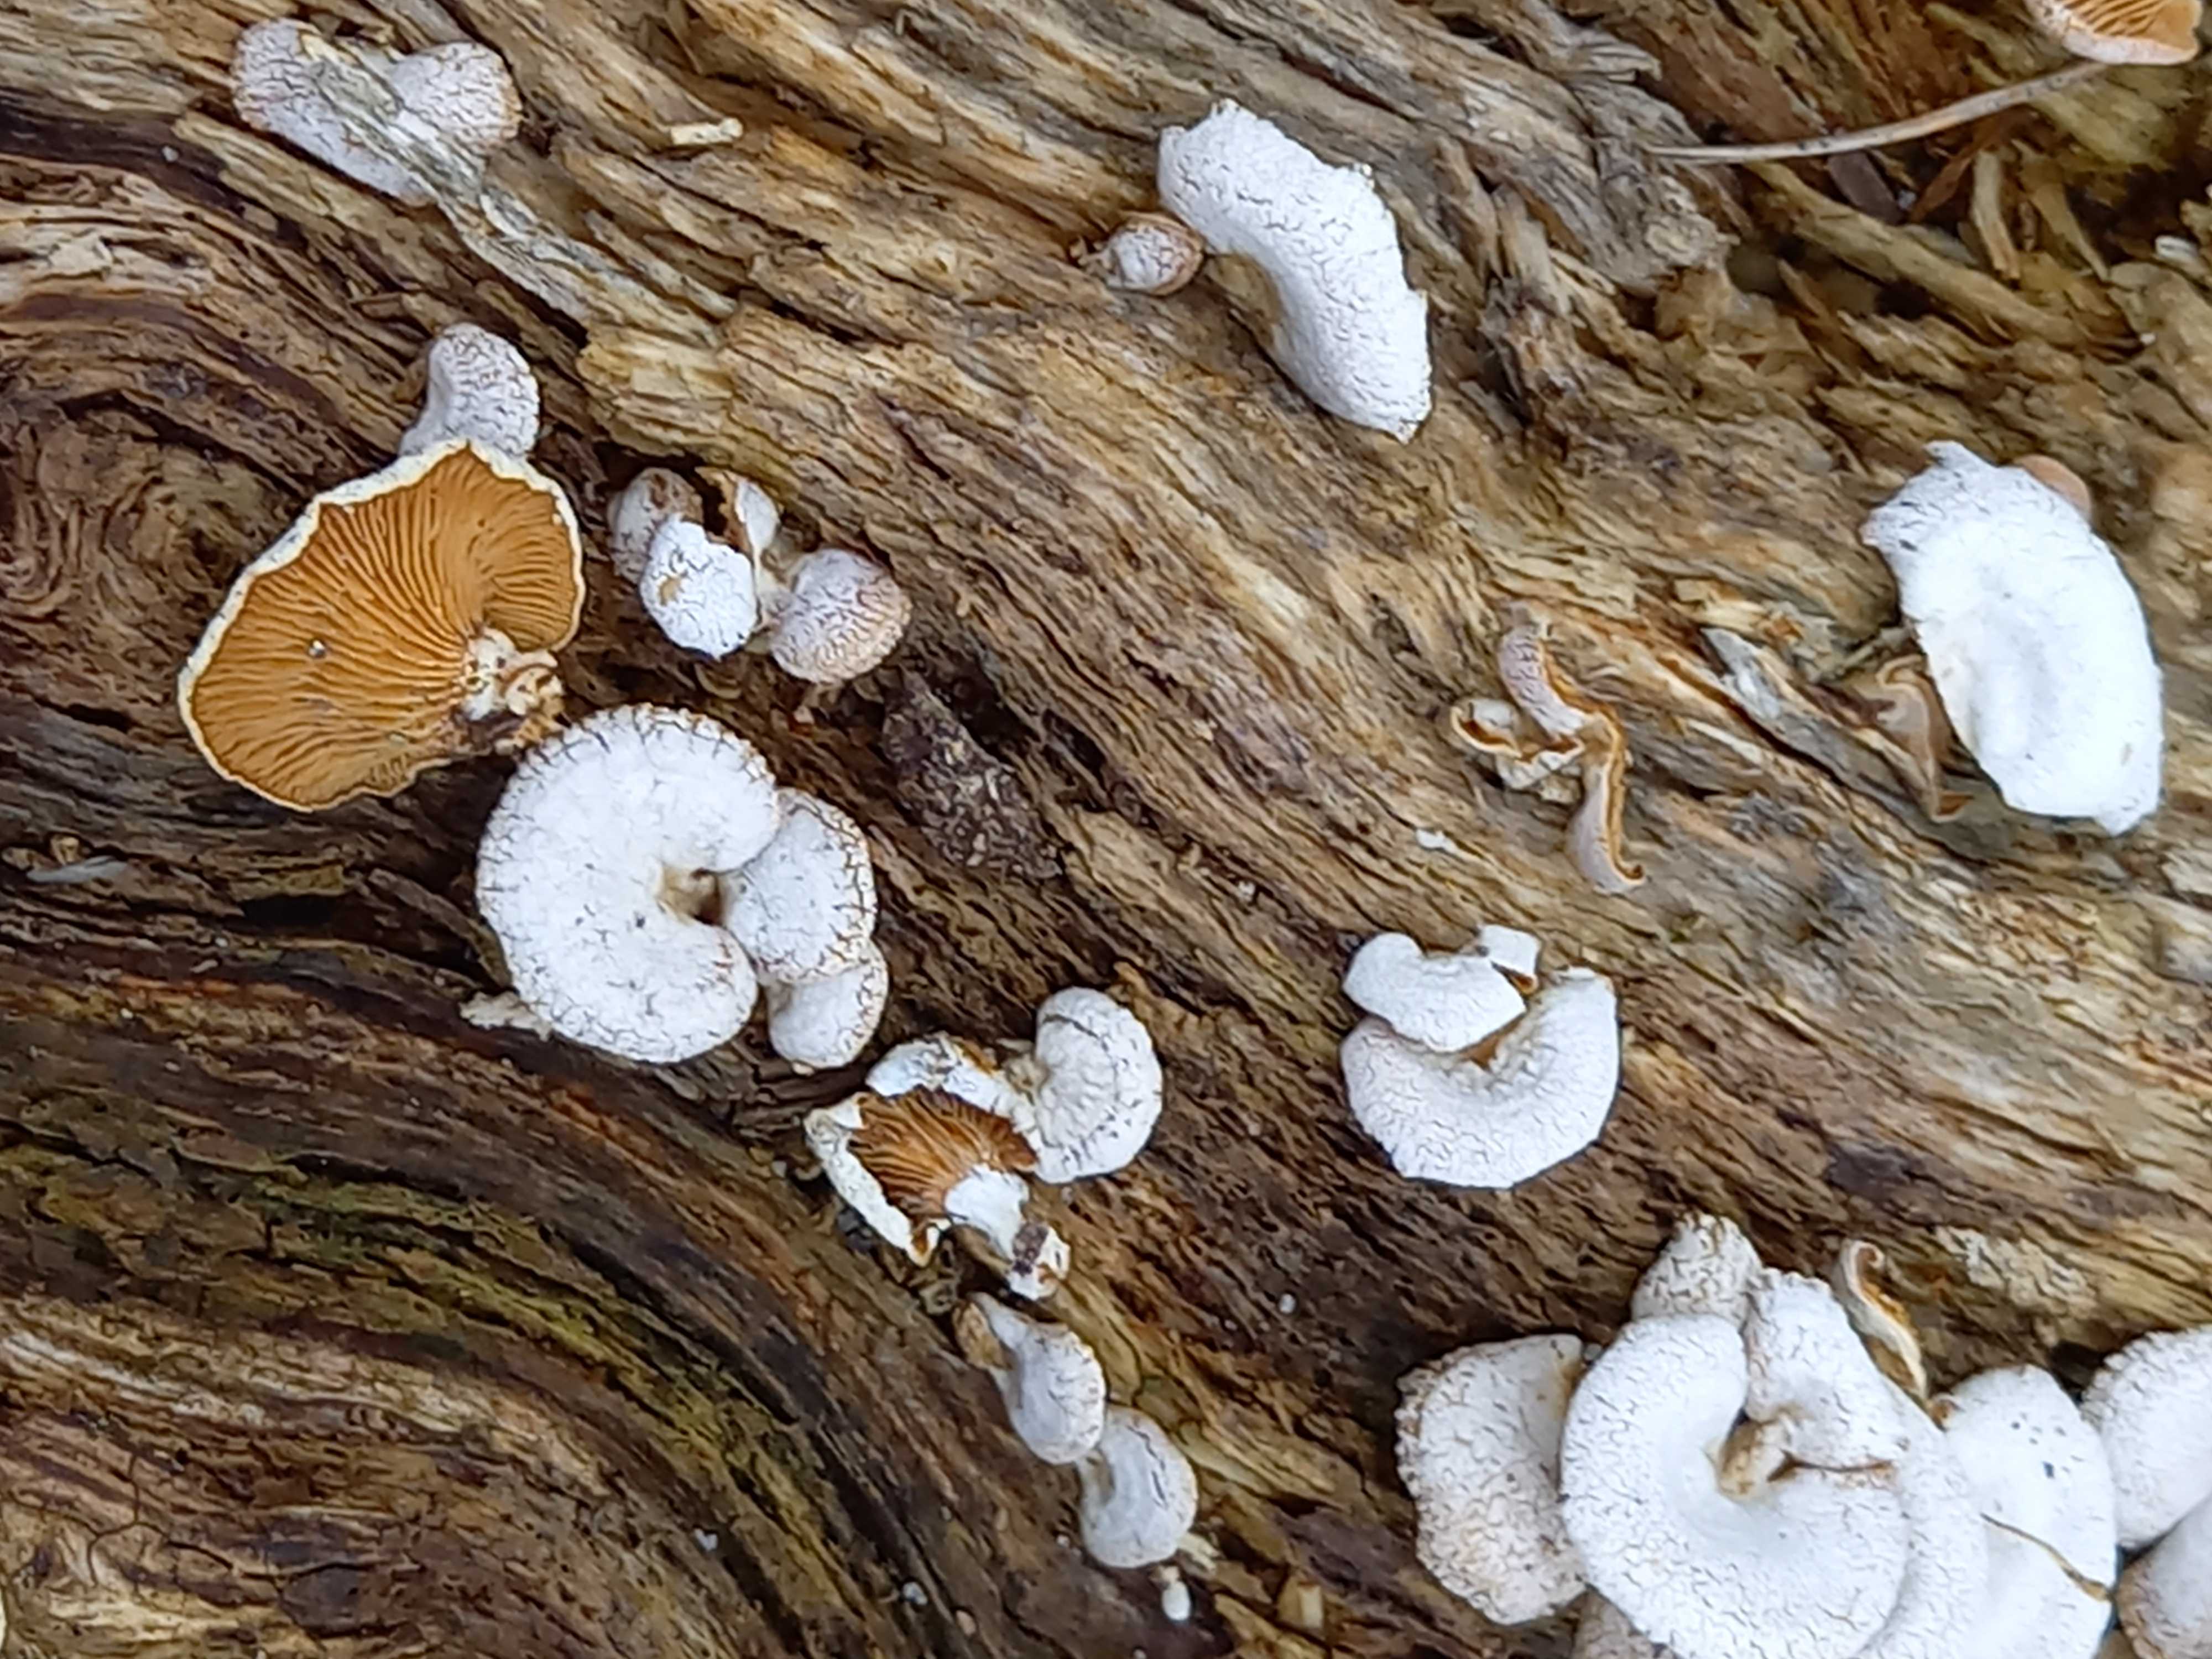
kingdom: Fungi
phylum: Basidiomycota
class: Agaricomycetes
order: Agaricales
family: Mycenaceae
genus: Panellus
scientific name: Panellus stipticus
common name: kliddet epaulethat
